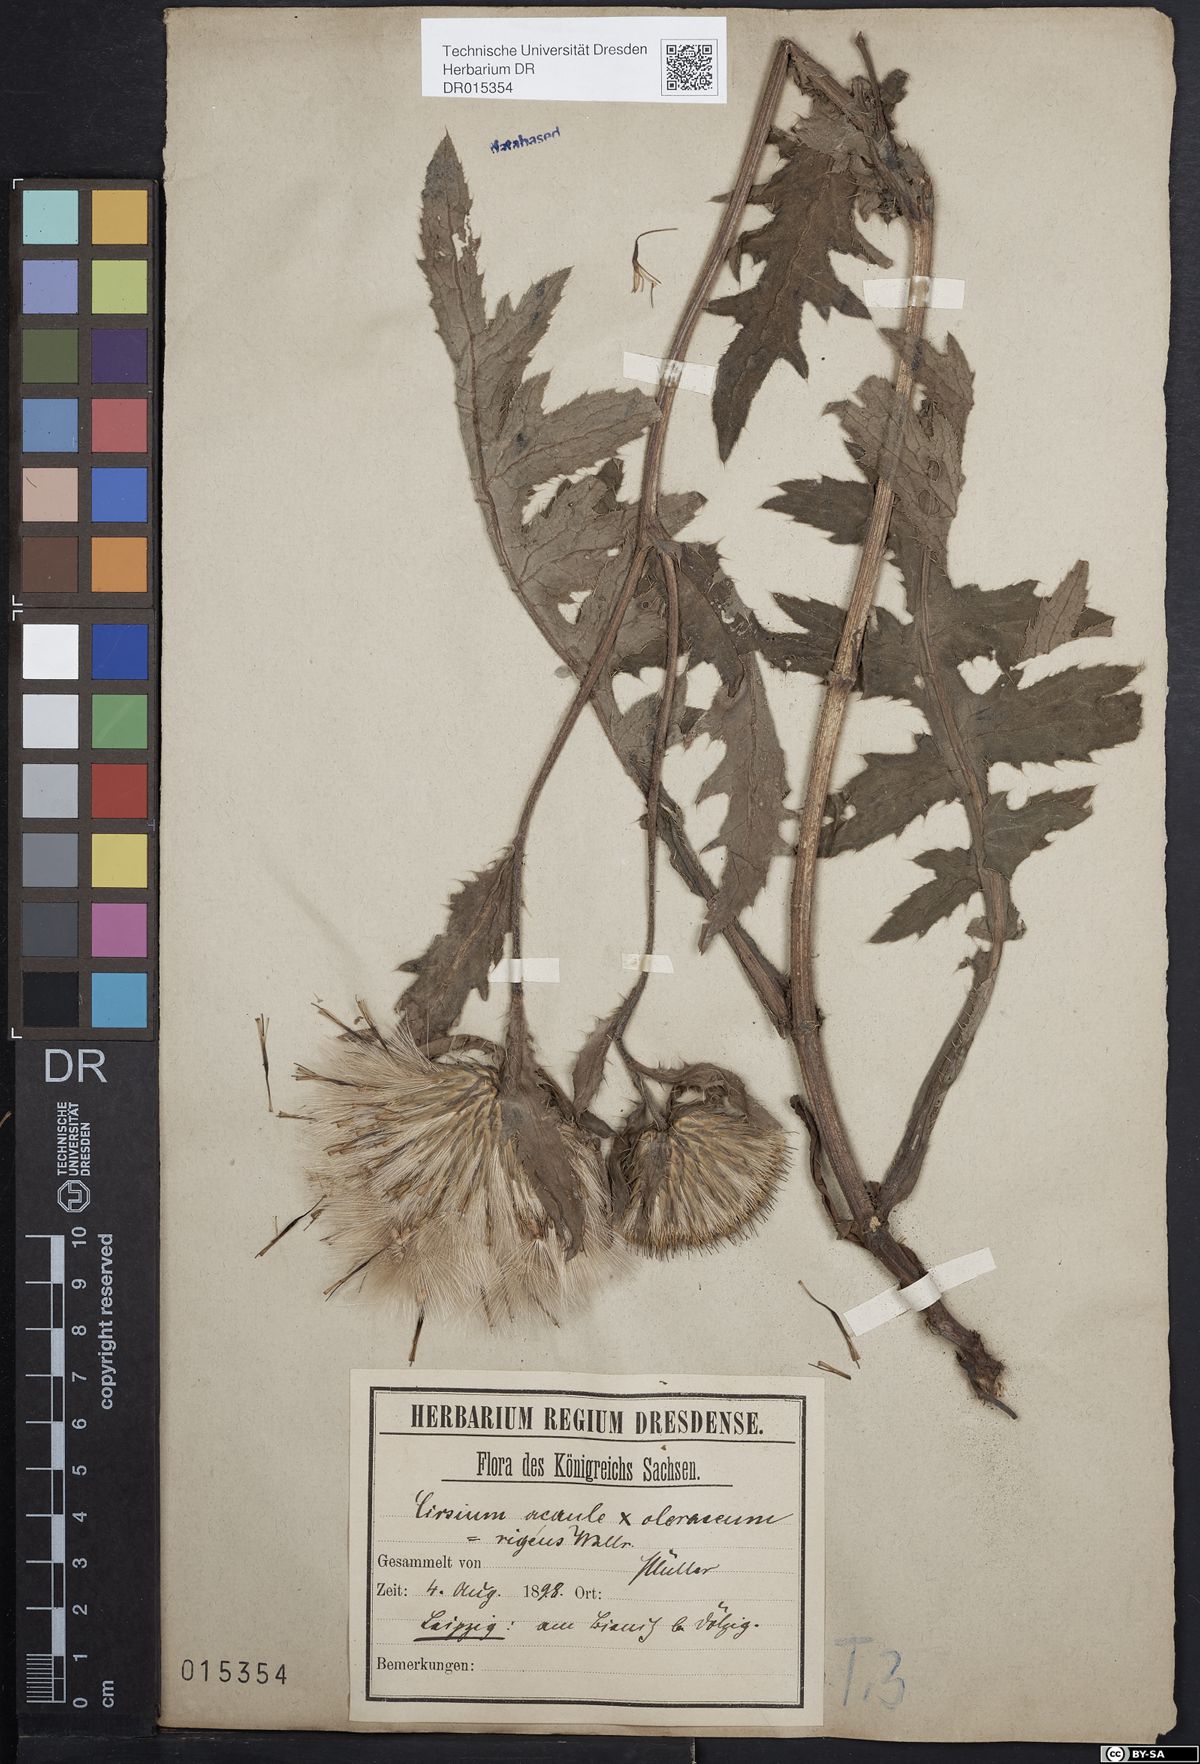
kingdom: Plantae
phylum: Tracheophyta
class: Magnoliopsida
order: Asterales
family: Asteraceae
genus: Cirsium
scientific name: Cirsium rigens
